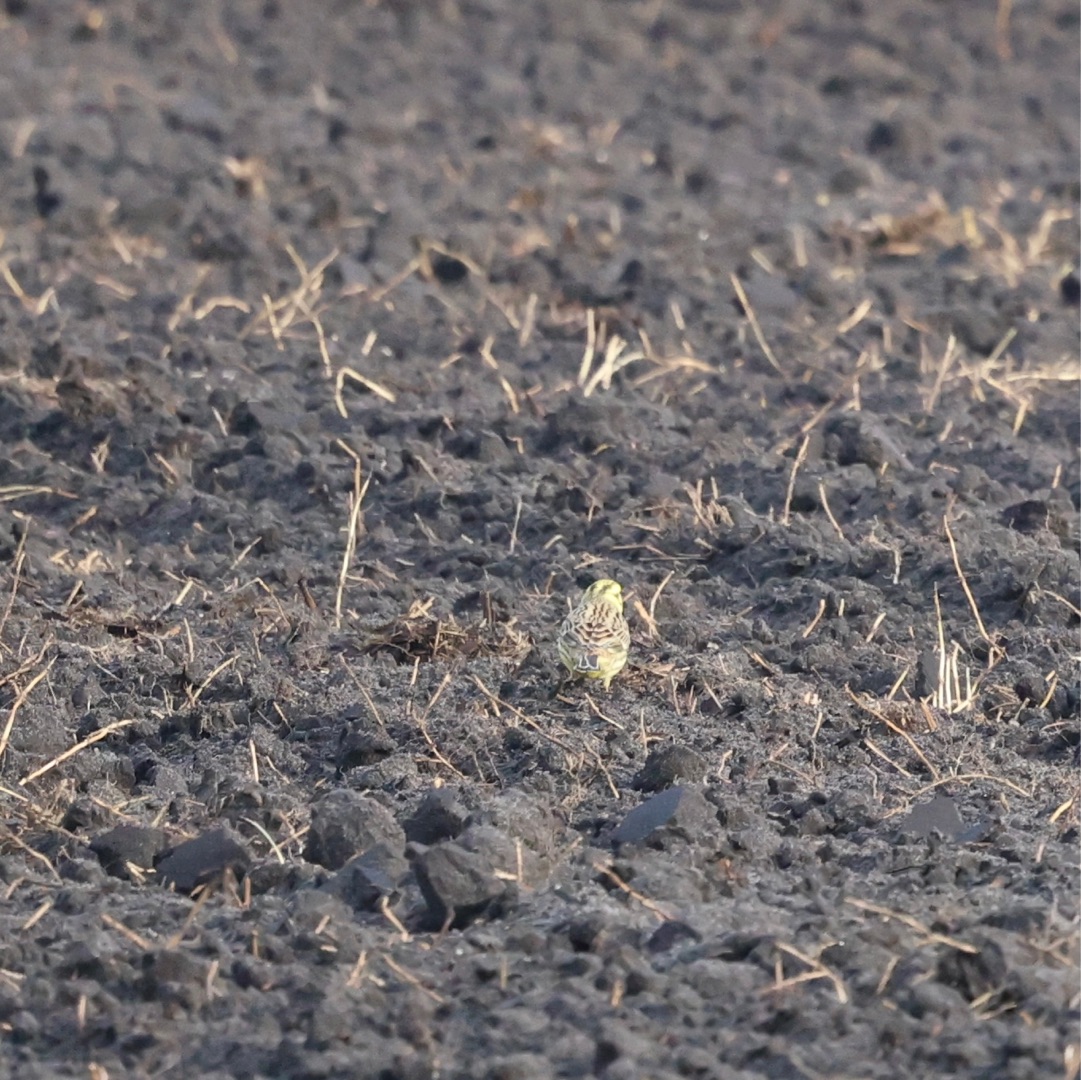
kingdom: Animalia
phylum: Chordata
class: Aves
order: Passeriformes
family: Emberizidae
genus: Emberiza
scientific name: Emberiza citrinella
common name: Gulspurv
